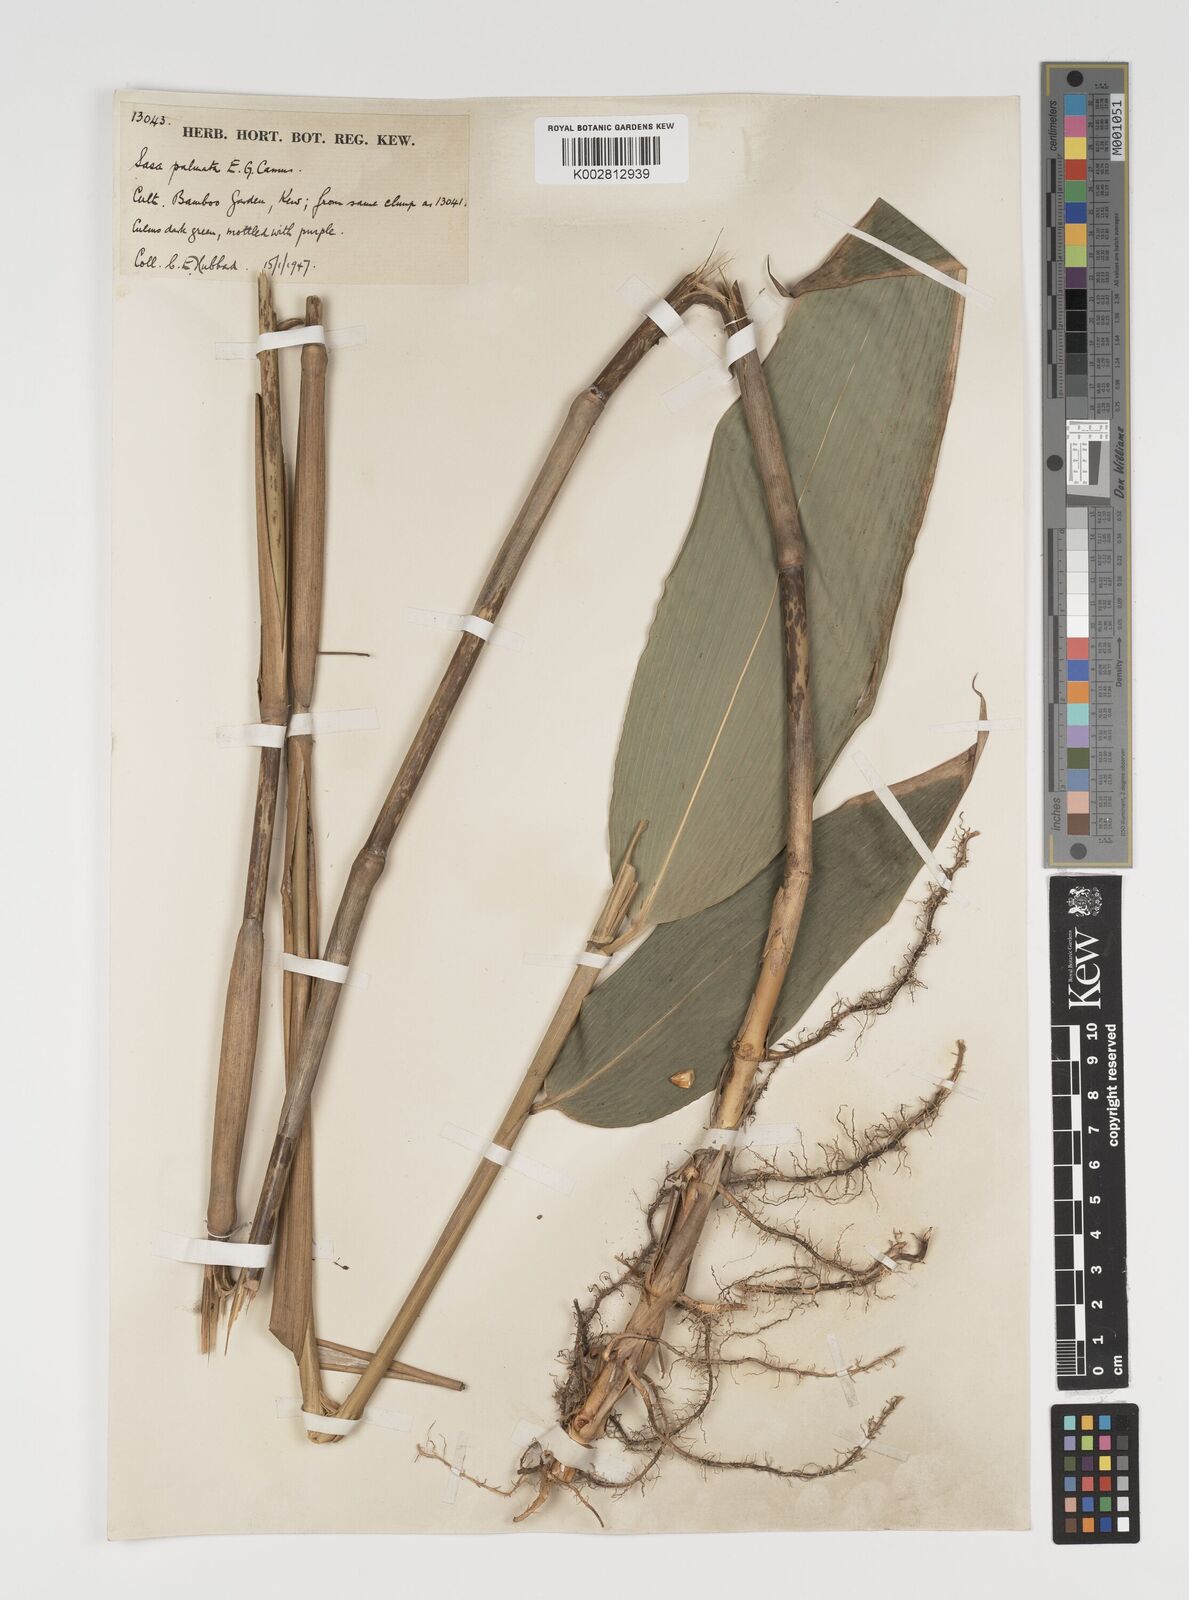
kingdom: Plantae
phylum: Tracheophyta
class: Liliopsida
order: Poales
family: Poaceae
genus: Sasa
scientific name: Sasa palmata
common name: Broad-leaved bamboo
